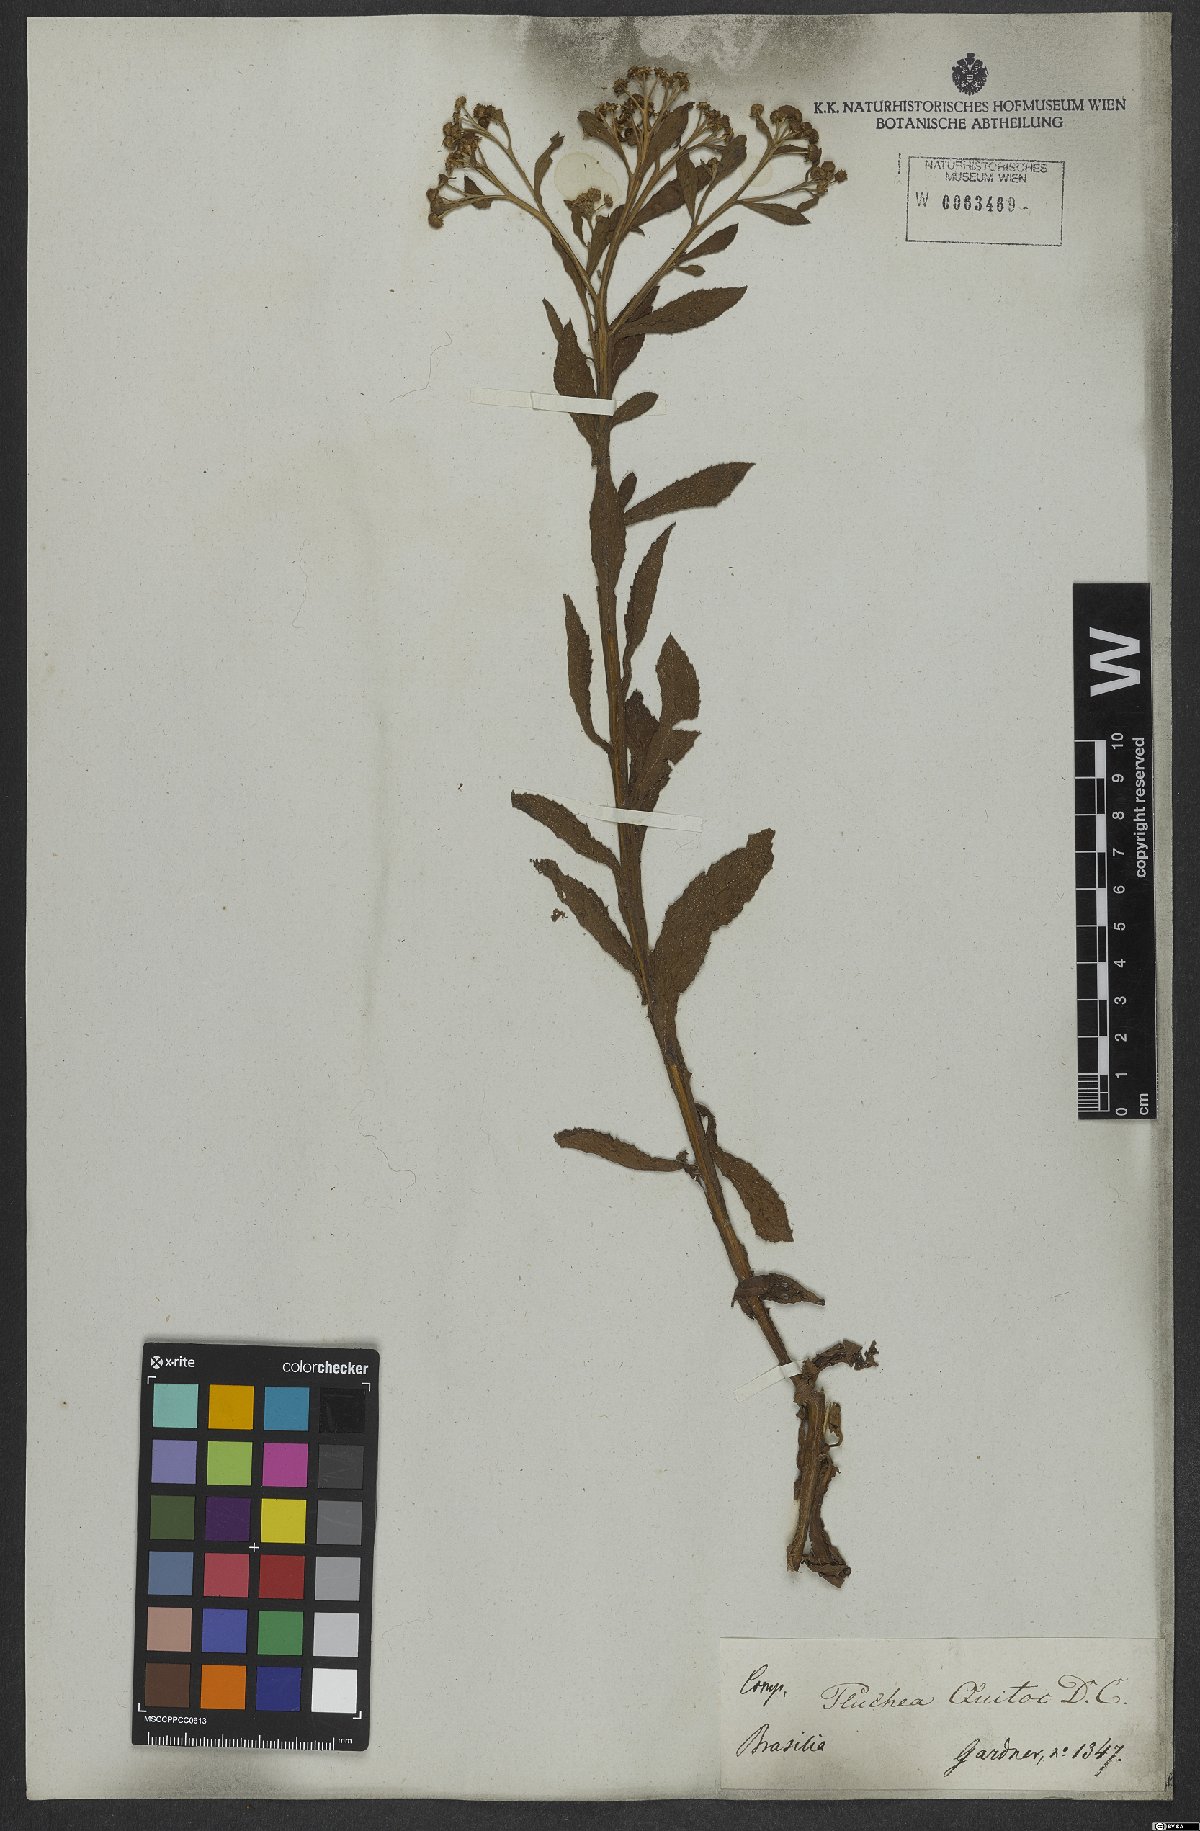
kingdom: Plantae
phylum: Tracheophyta
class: Magnoliopsida
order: Asterales
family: Asteraceae
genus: Pluchea
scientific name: Pluchea sagittalis
